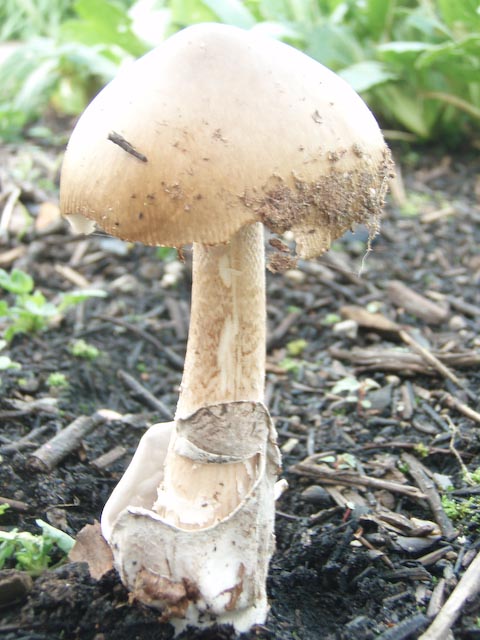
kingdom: Fungi
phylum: Basidiomycota
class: Agaricomycetes
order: Agaricales
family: Amanitaceae
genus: Amanita
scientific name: Amanita vaginata
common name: grå kam-fluesvamp
